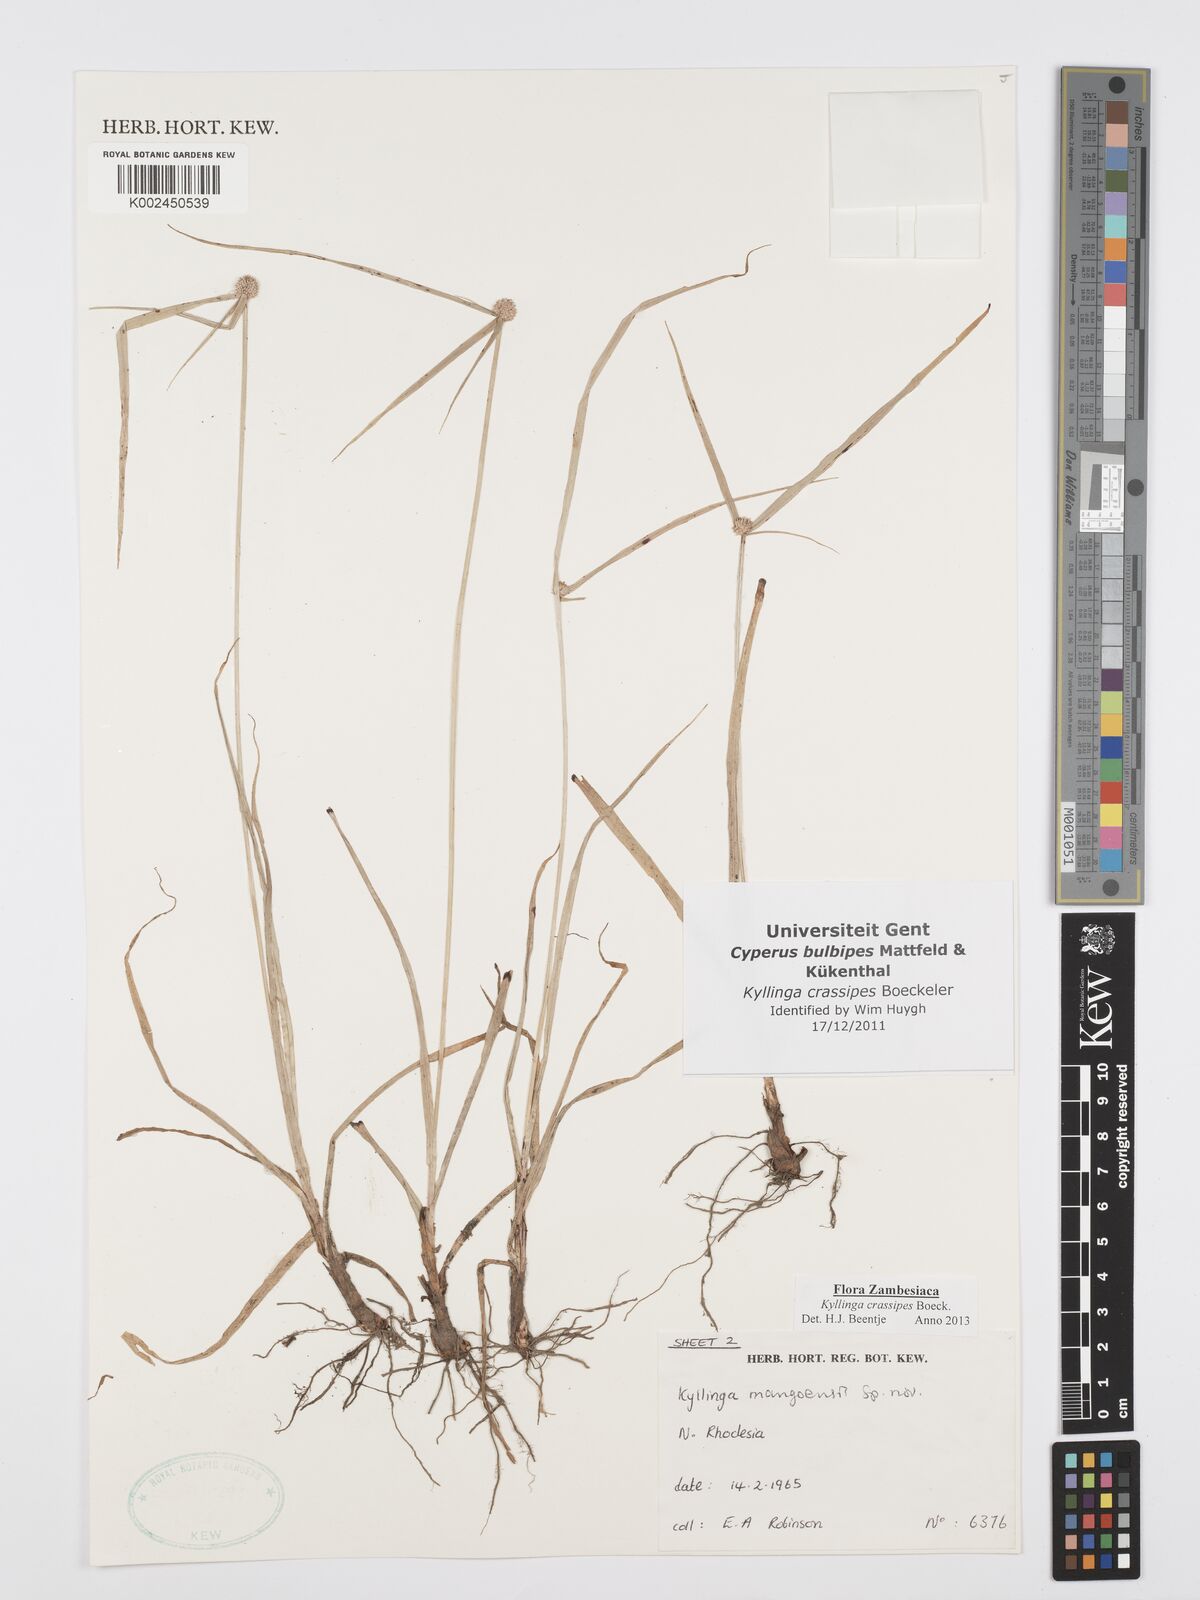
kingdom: Plantae
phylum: Tracheophyta
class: Liliopsida
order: Poales
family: Cyperaceae
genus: Cyperus
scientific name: Cyperus crassipes
